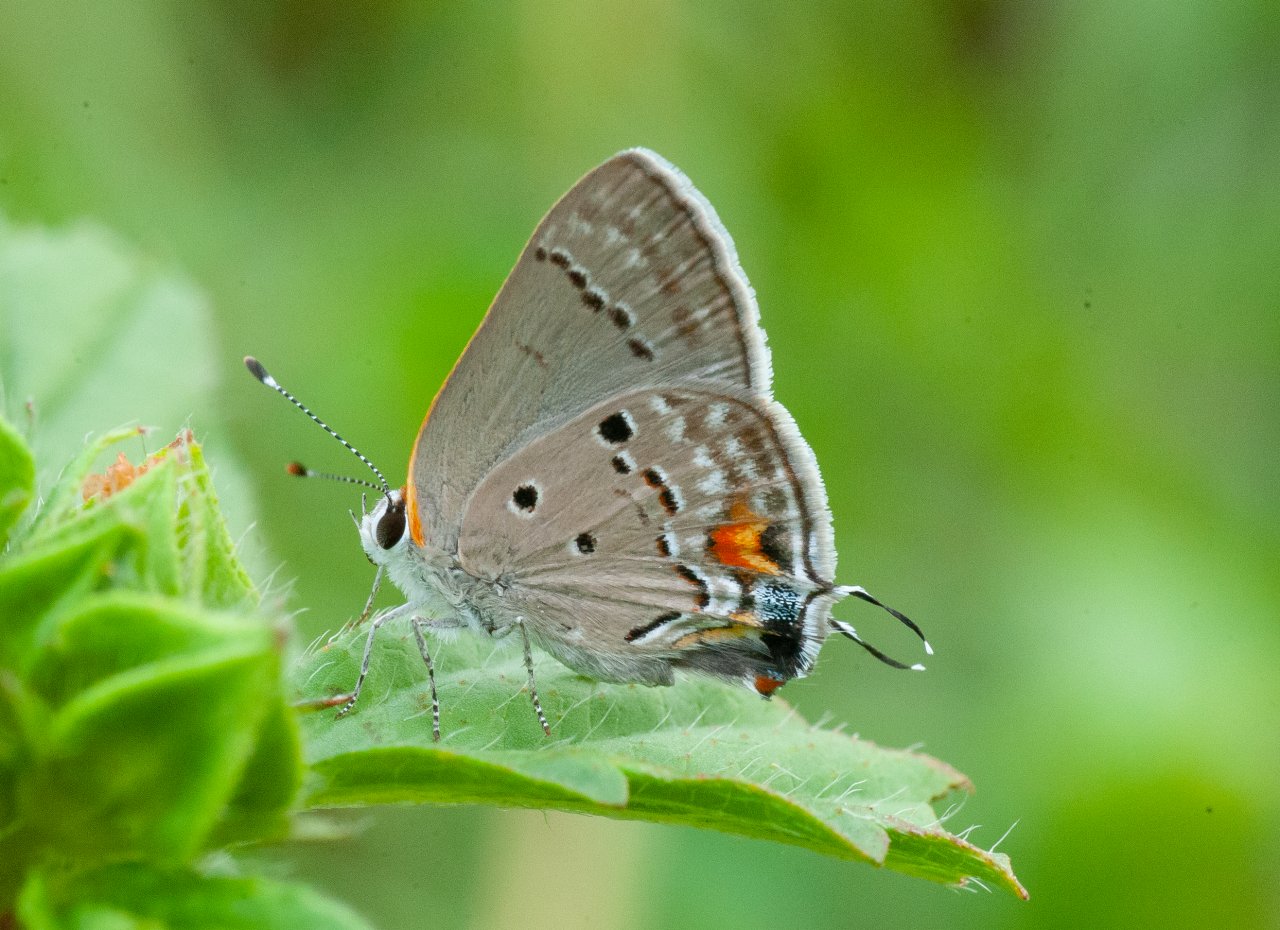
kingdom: Animalia
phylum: Arthropoda
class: Insecta
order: Lepidoptera
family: Lycaenidae
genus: Thecla
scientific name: Thecla limenia
